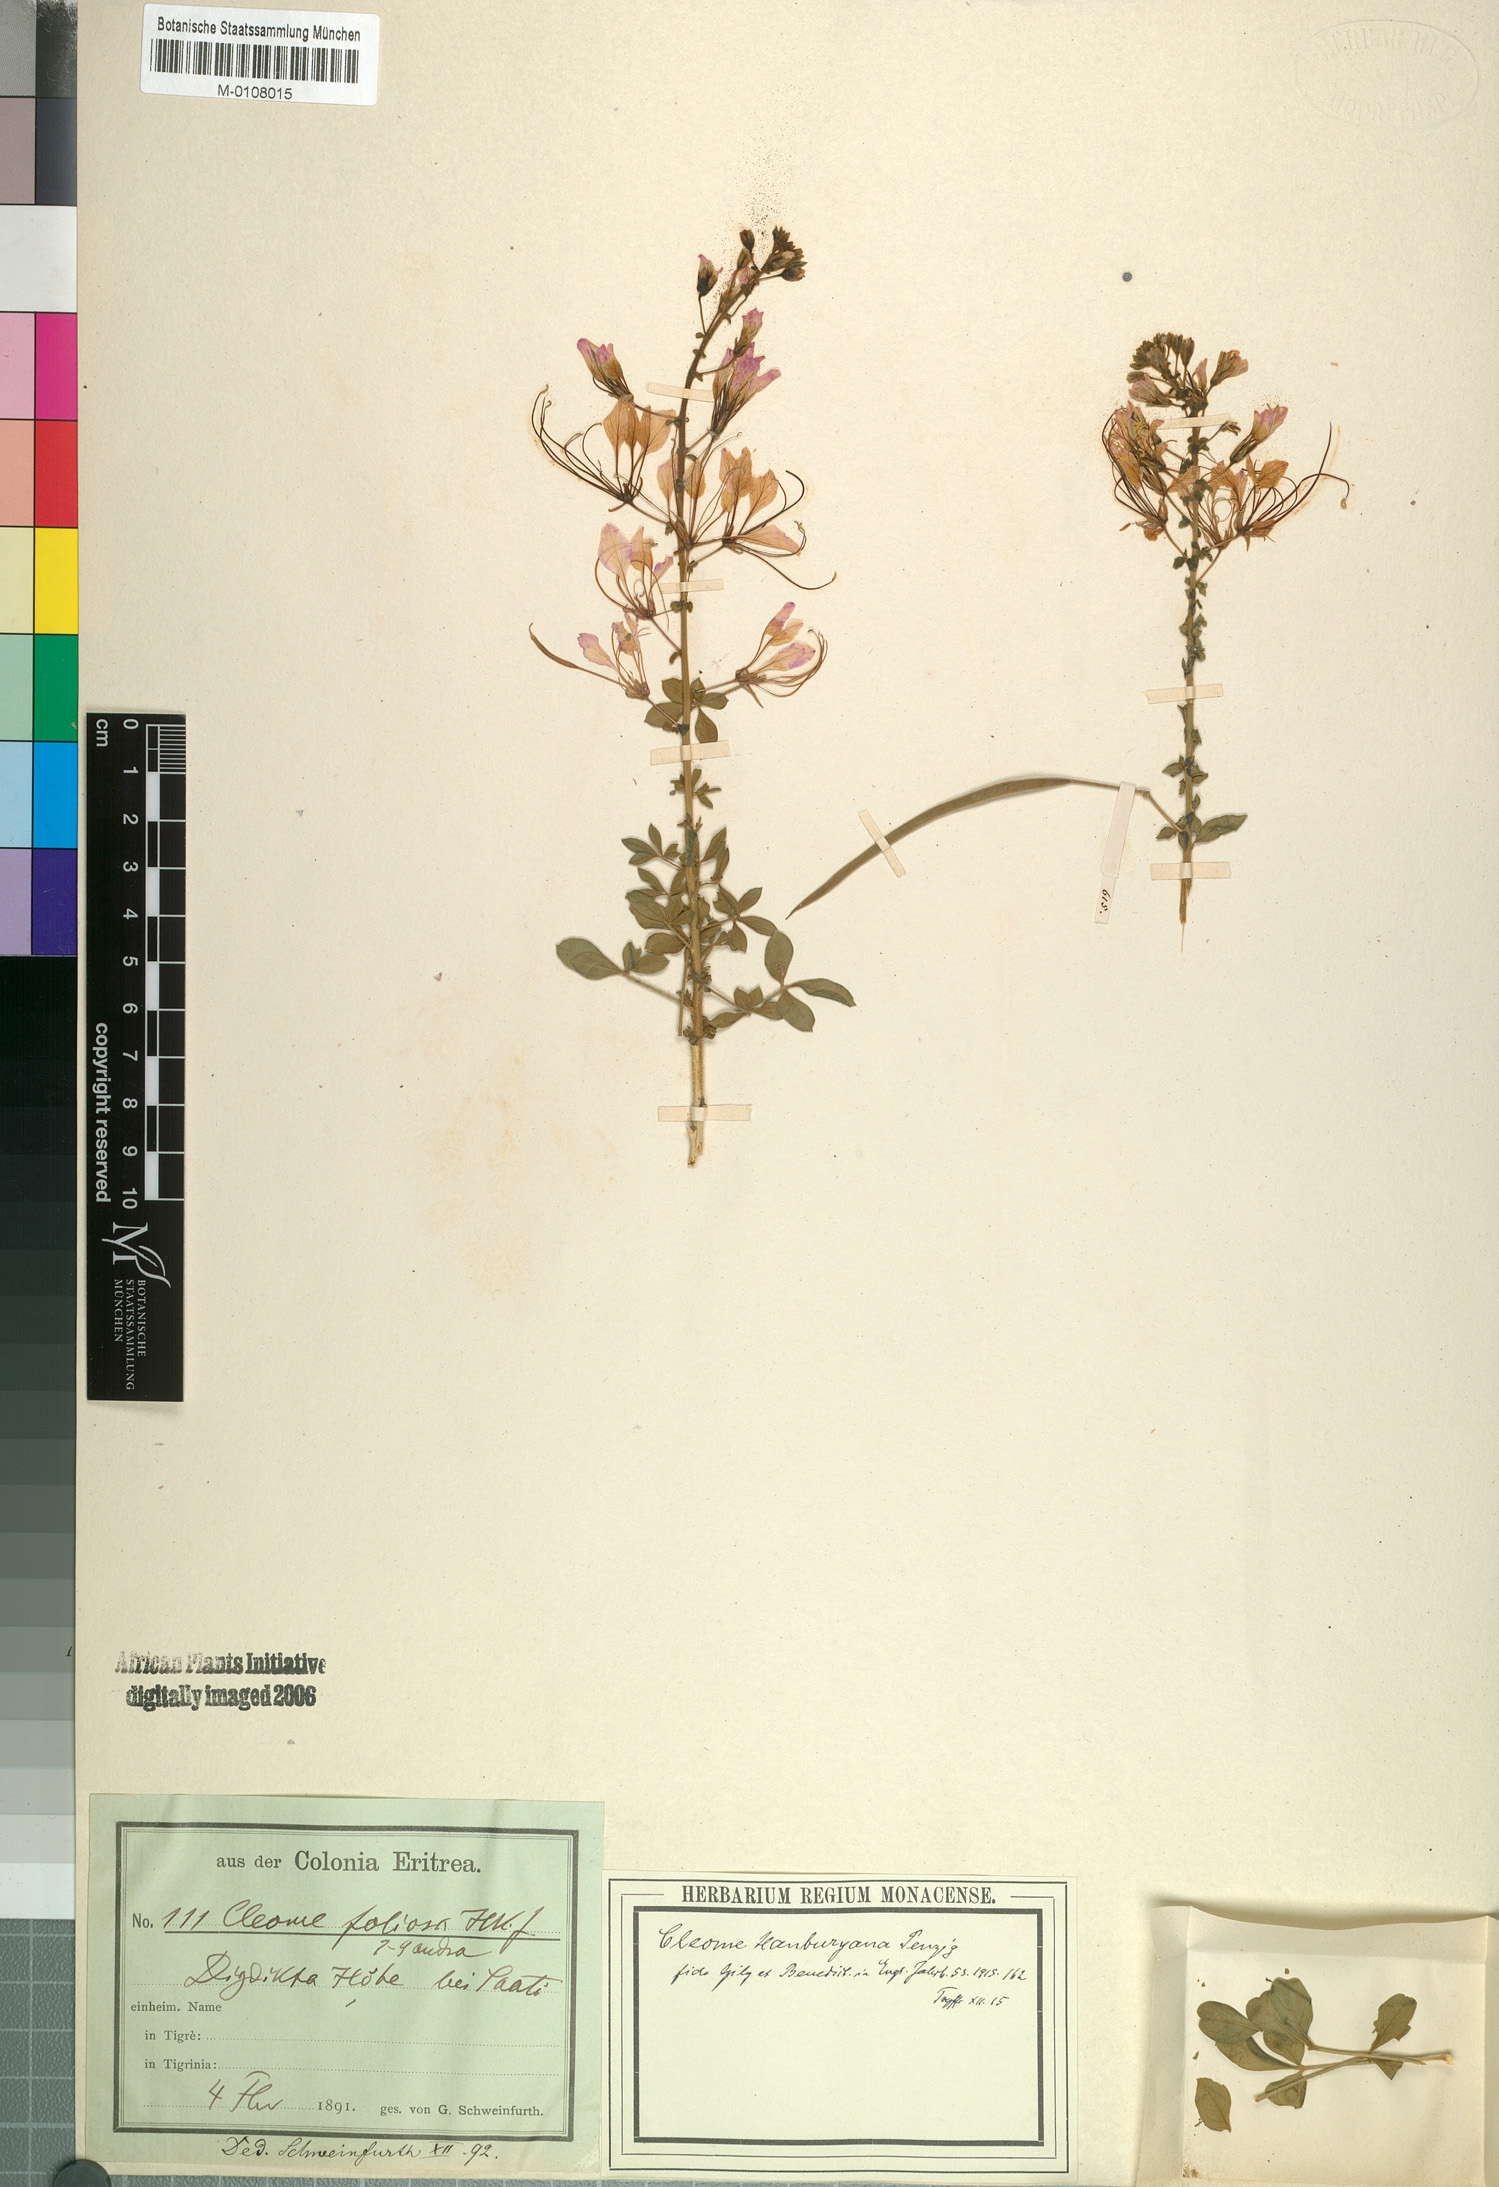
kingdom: Plantae
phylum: Tracheophyta
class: Magnoliopsida
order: Brassicales
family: Cleomaceae
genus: Sieruela
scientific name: Sieruela hanburyana
